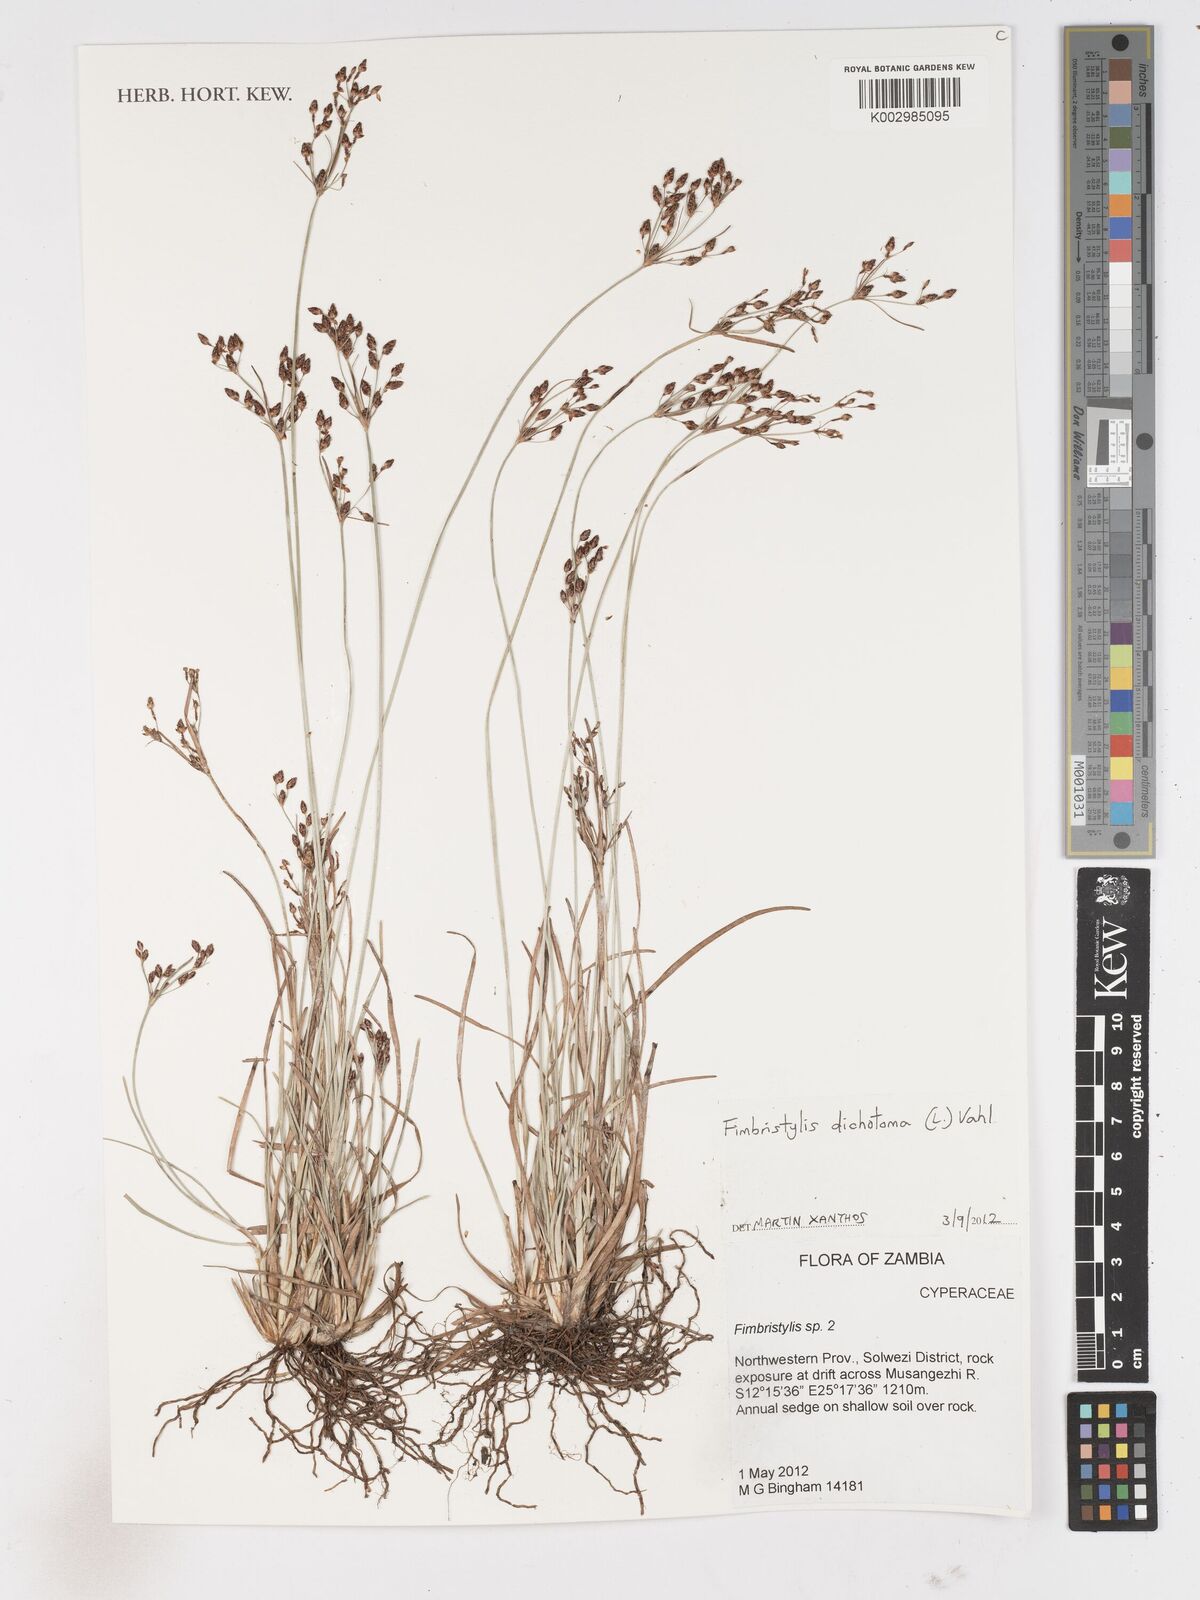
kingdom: Plantae
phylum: Tracheophyta
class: Liliopsida
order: Poales
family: Cyperaceae
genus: Fimbristylis
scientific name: Fimbristylis dichotoma
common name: Forked fimbry
